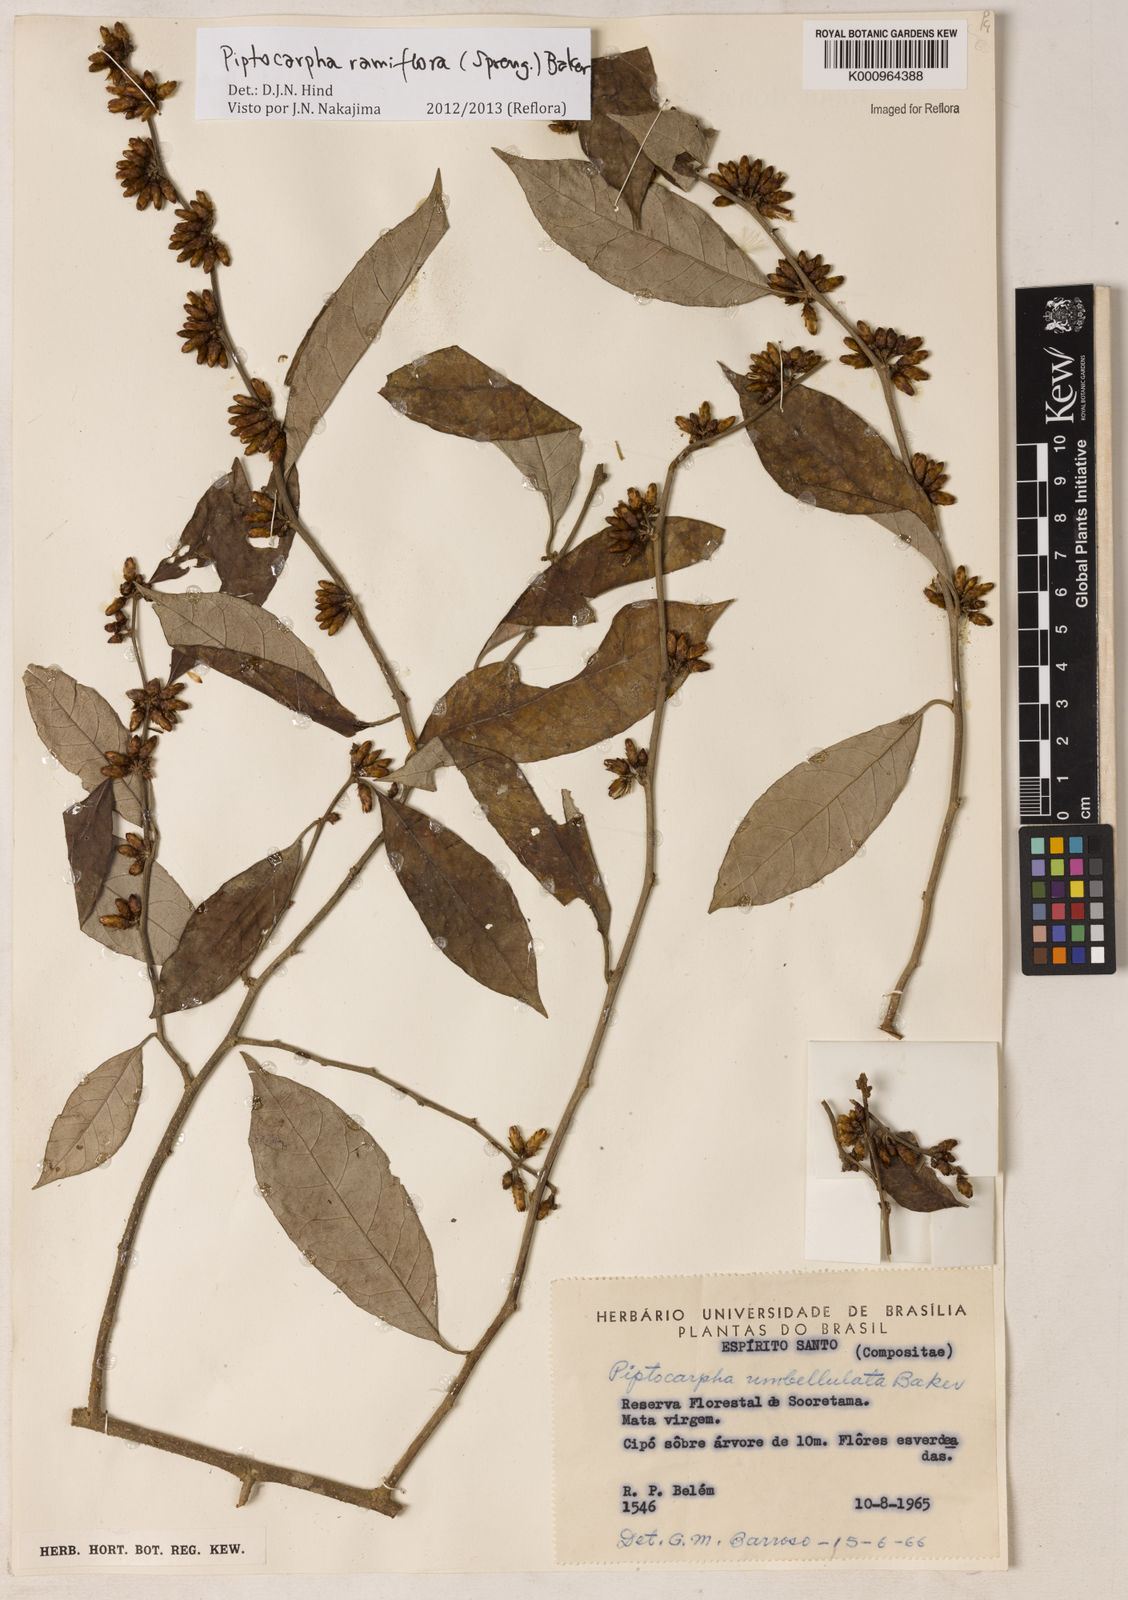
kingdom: Plantae
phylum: Tracheophyta
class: Magnoliopsida
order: Asterales
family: Asteraceae
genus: Piptocarpha
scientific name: Piptocarpha ramiflora
